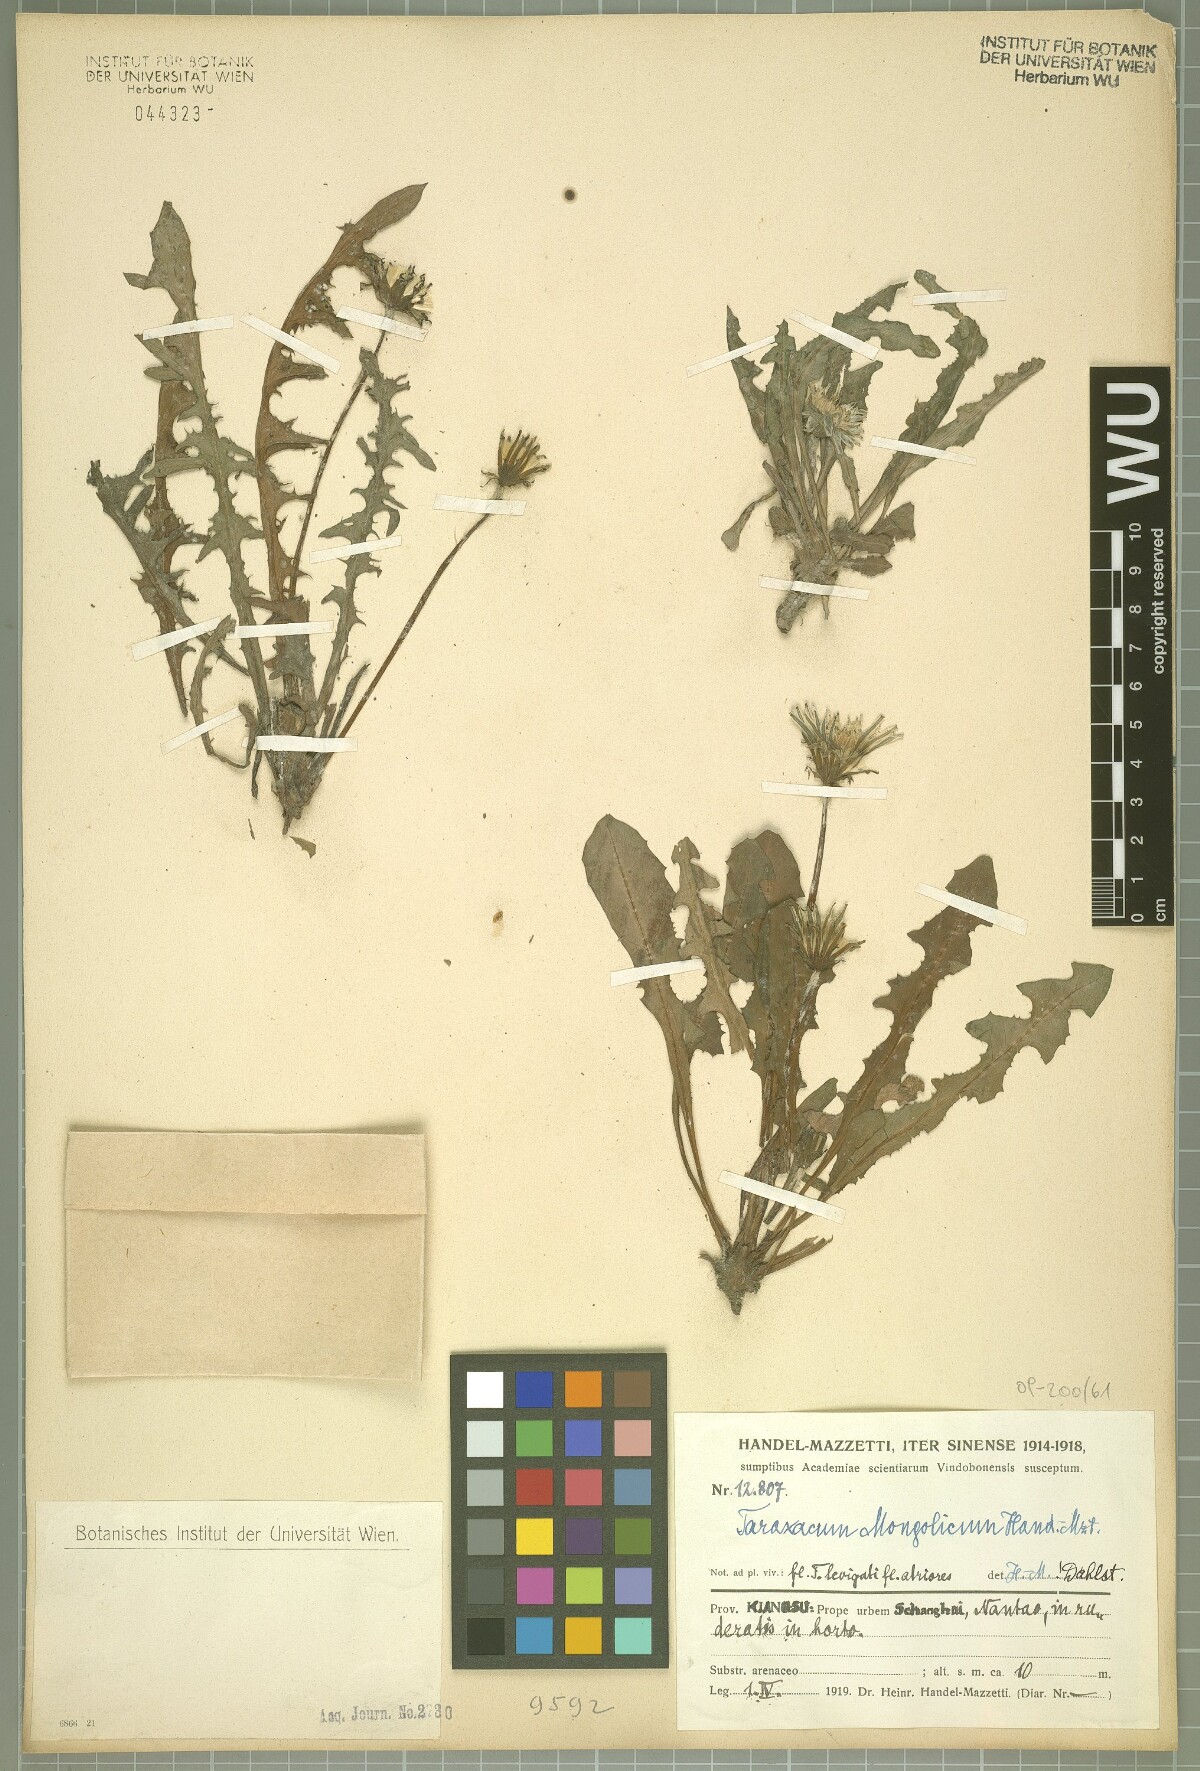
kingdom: Plantae
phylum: Tracheophyta
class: Magnoliopsida
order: Asterales
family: Asteraceae
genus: Taraxacum
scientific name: Taraxacum mongolicum
